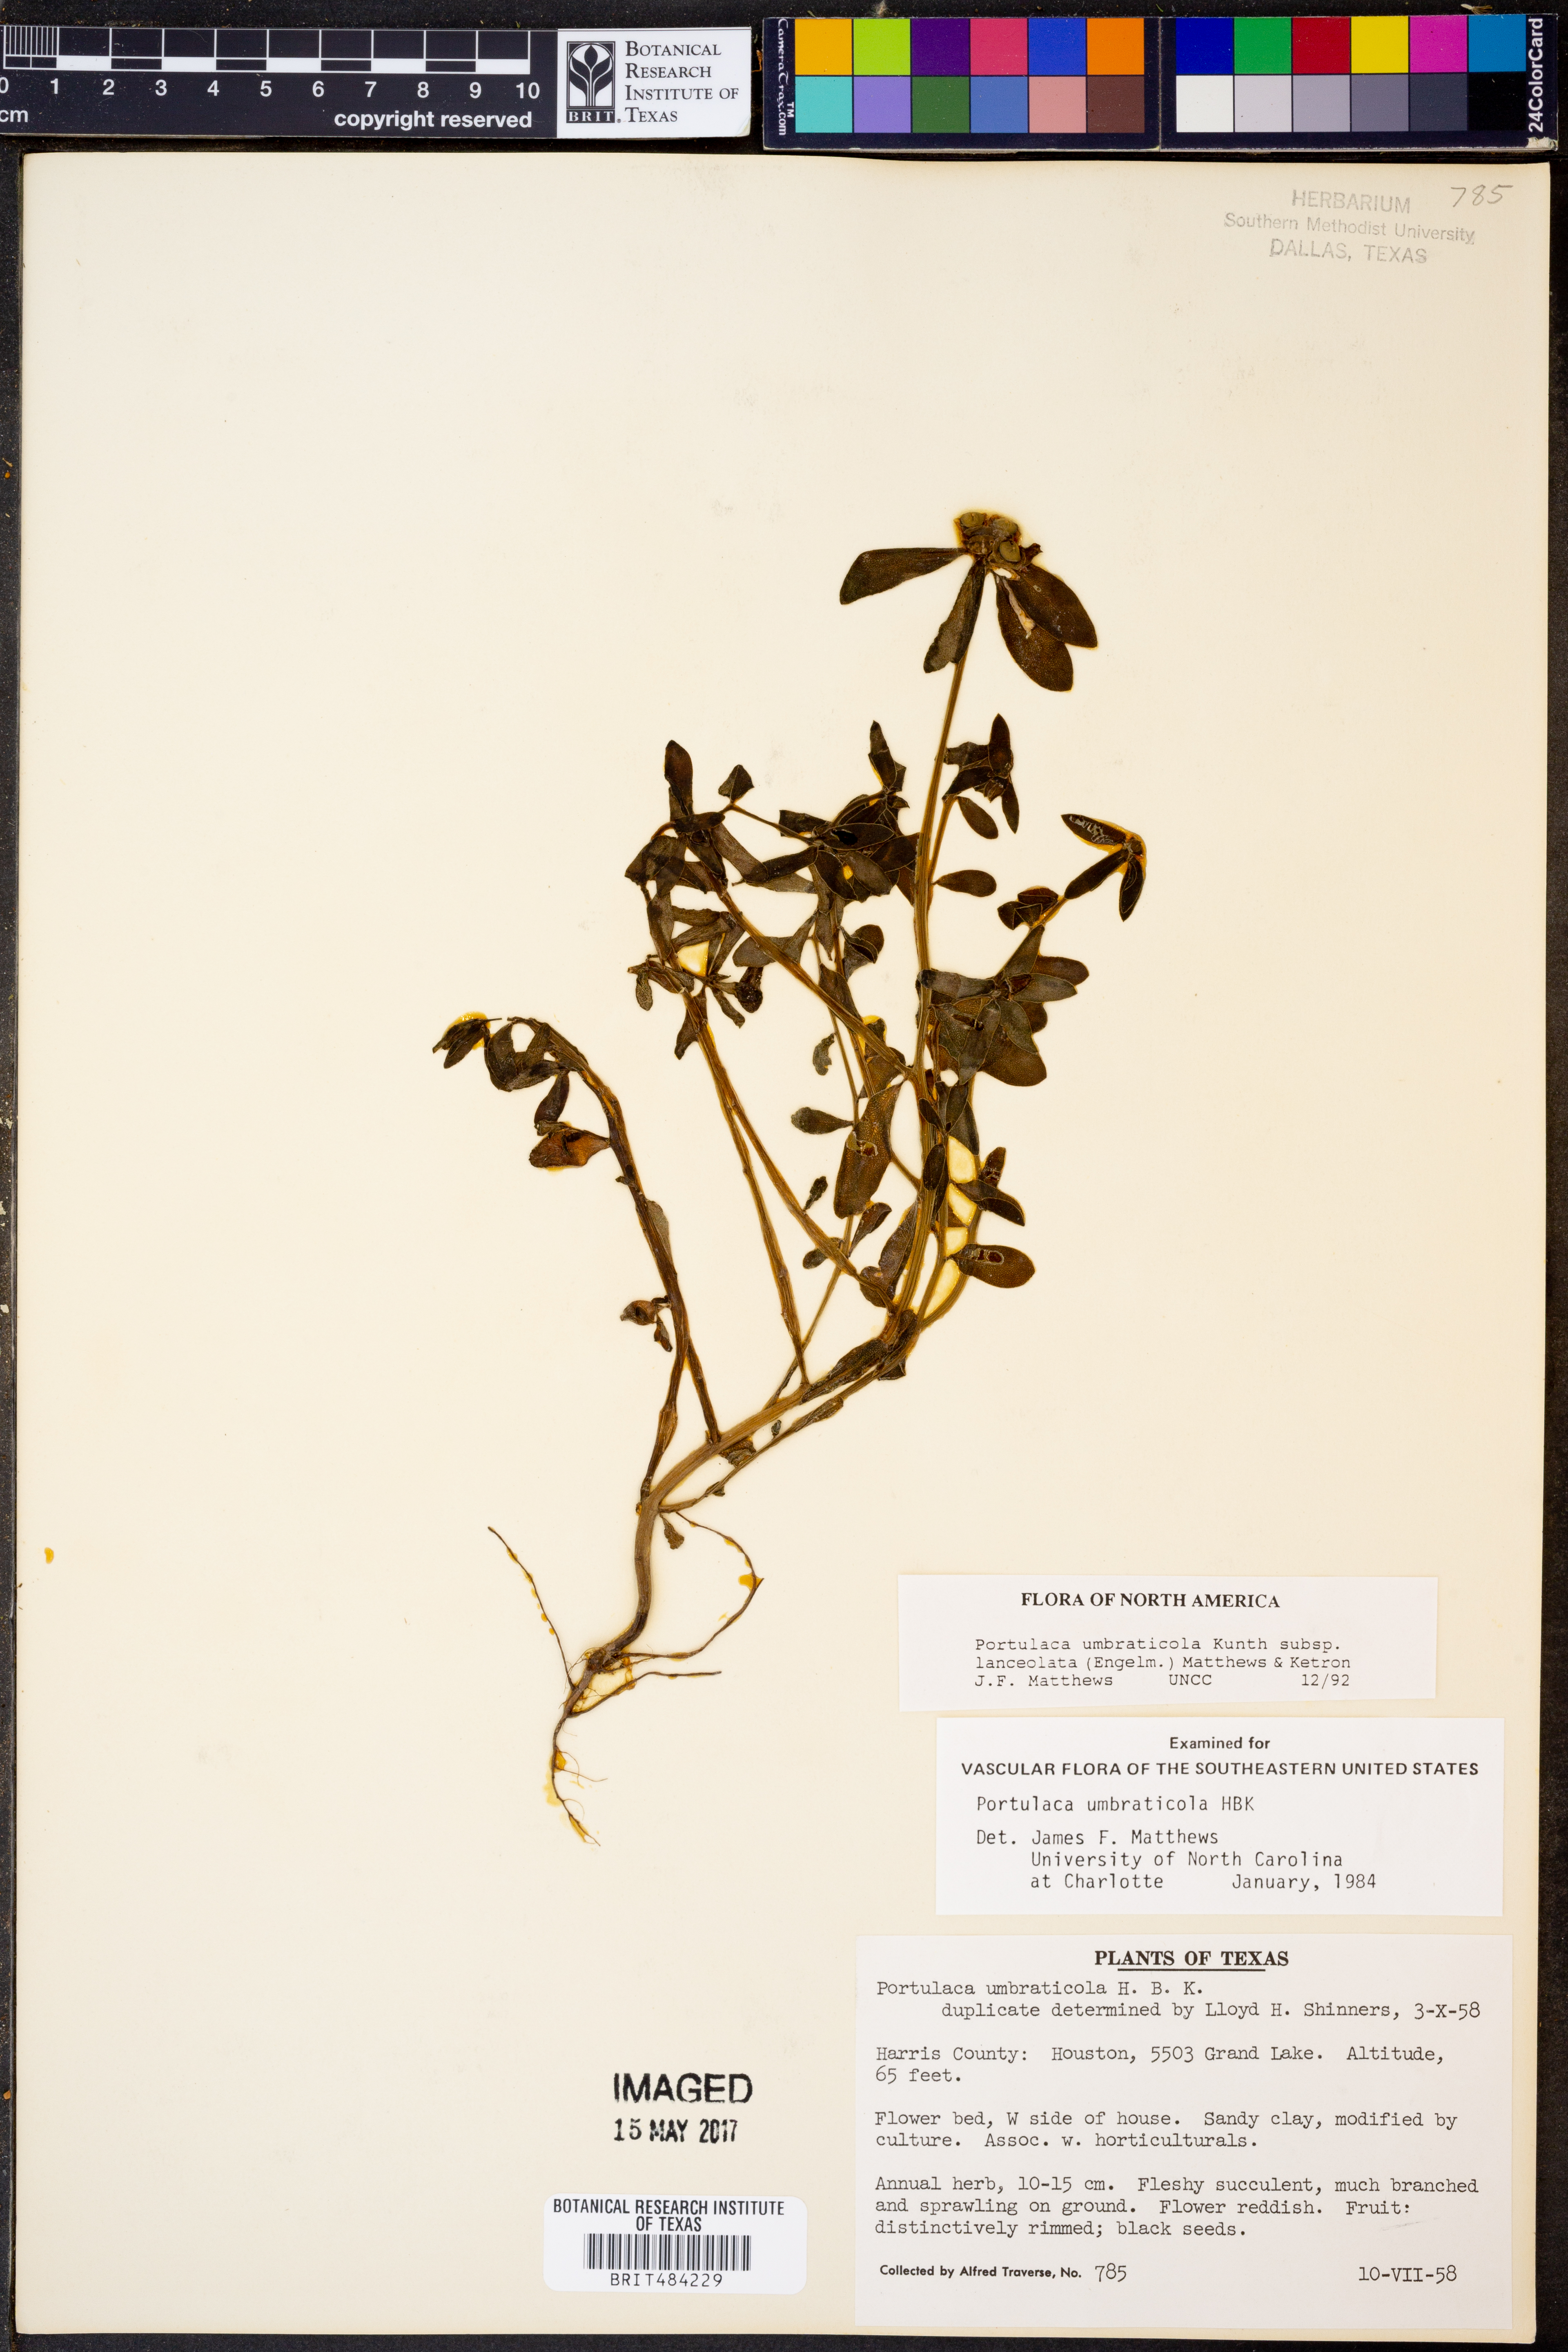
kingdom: Plantae
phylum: Tracheophyta
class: Magnoliopsida
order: Caryophyllales
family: Portulacaceae
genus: Portulaca
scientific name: Portulaca umbraticola
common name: Wingpod purslane
